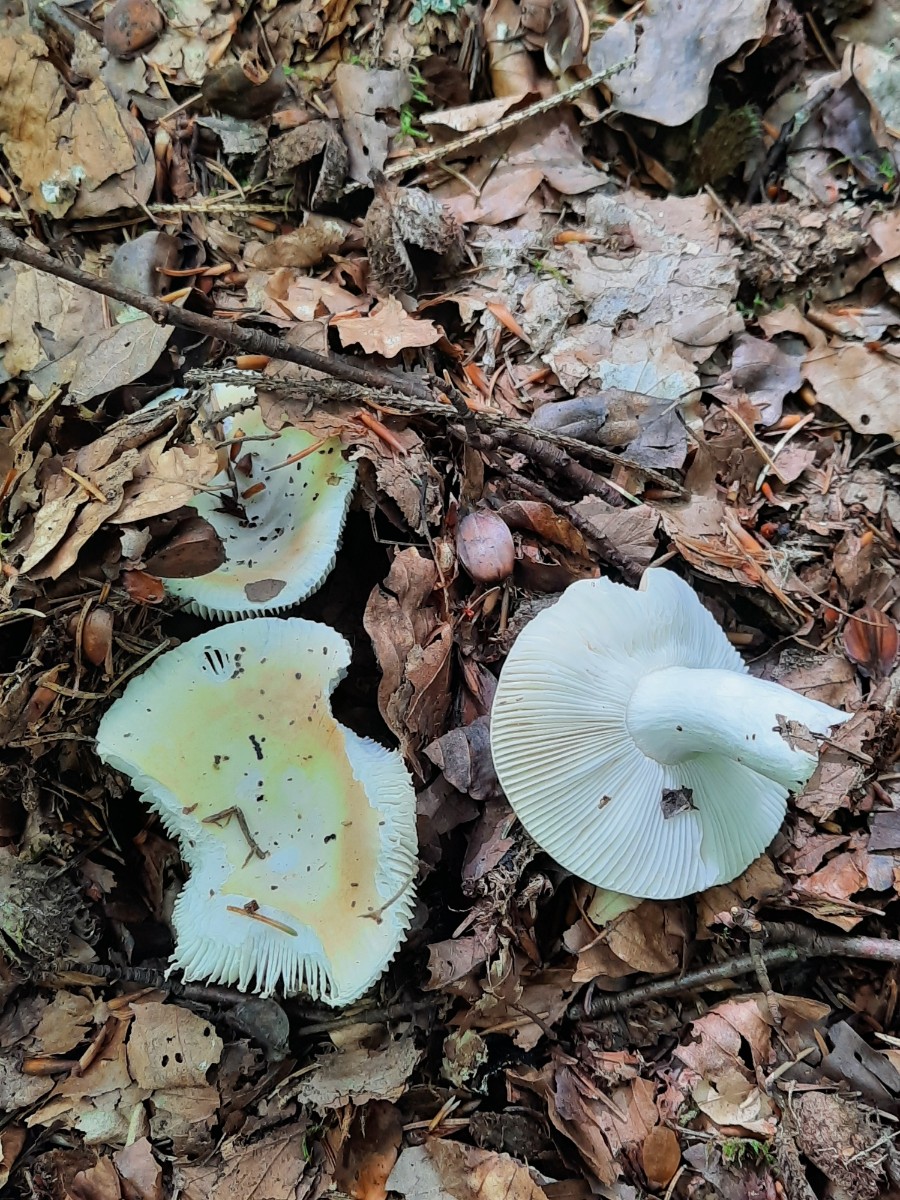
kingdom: Fungi
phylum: Basidiomycota
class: Agaricomycetes
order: Russulales
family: Russulaceae
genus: Russula
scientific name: Russula risigallina
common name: abrikos-skørhat
